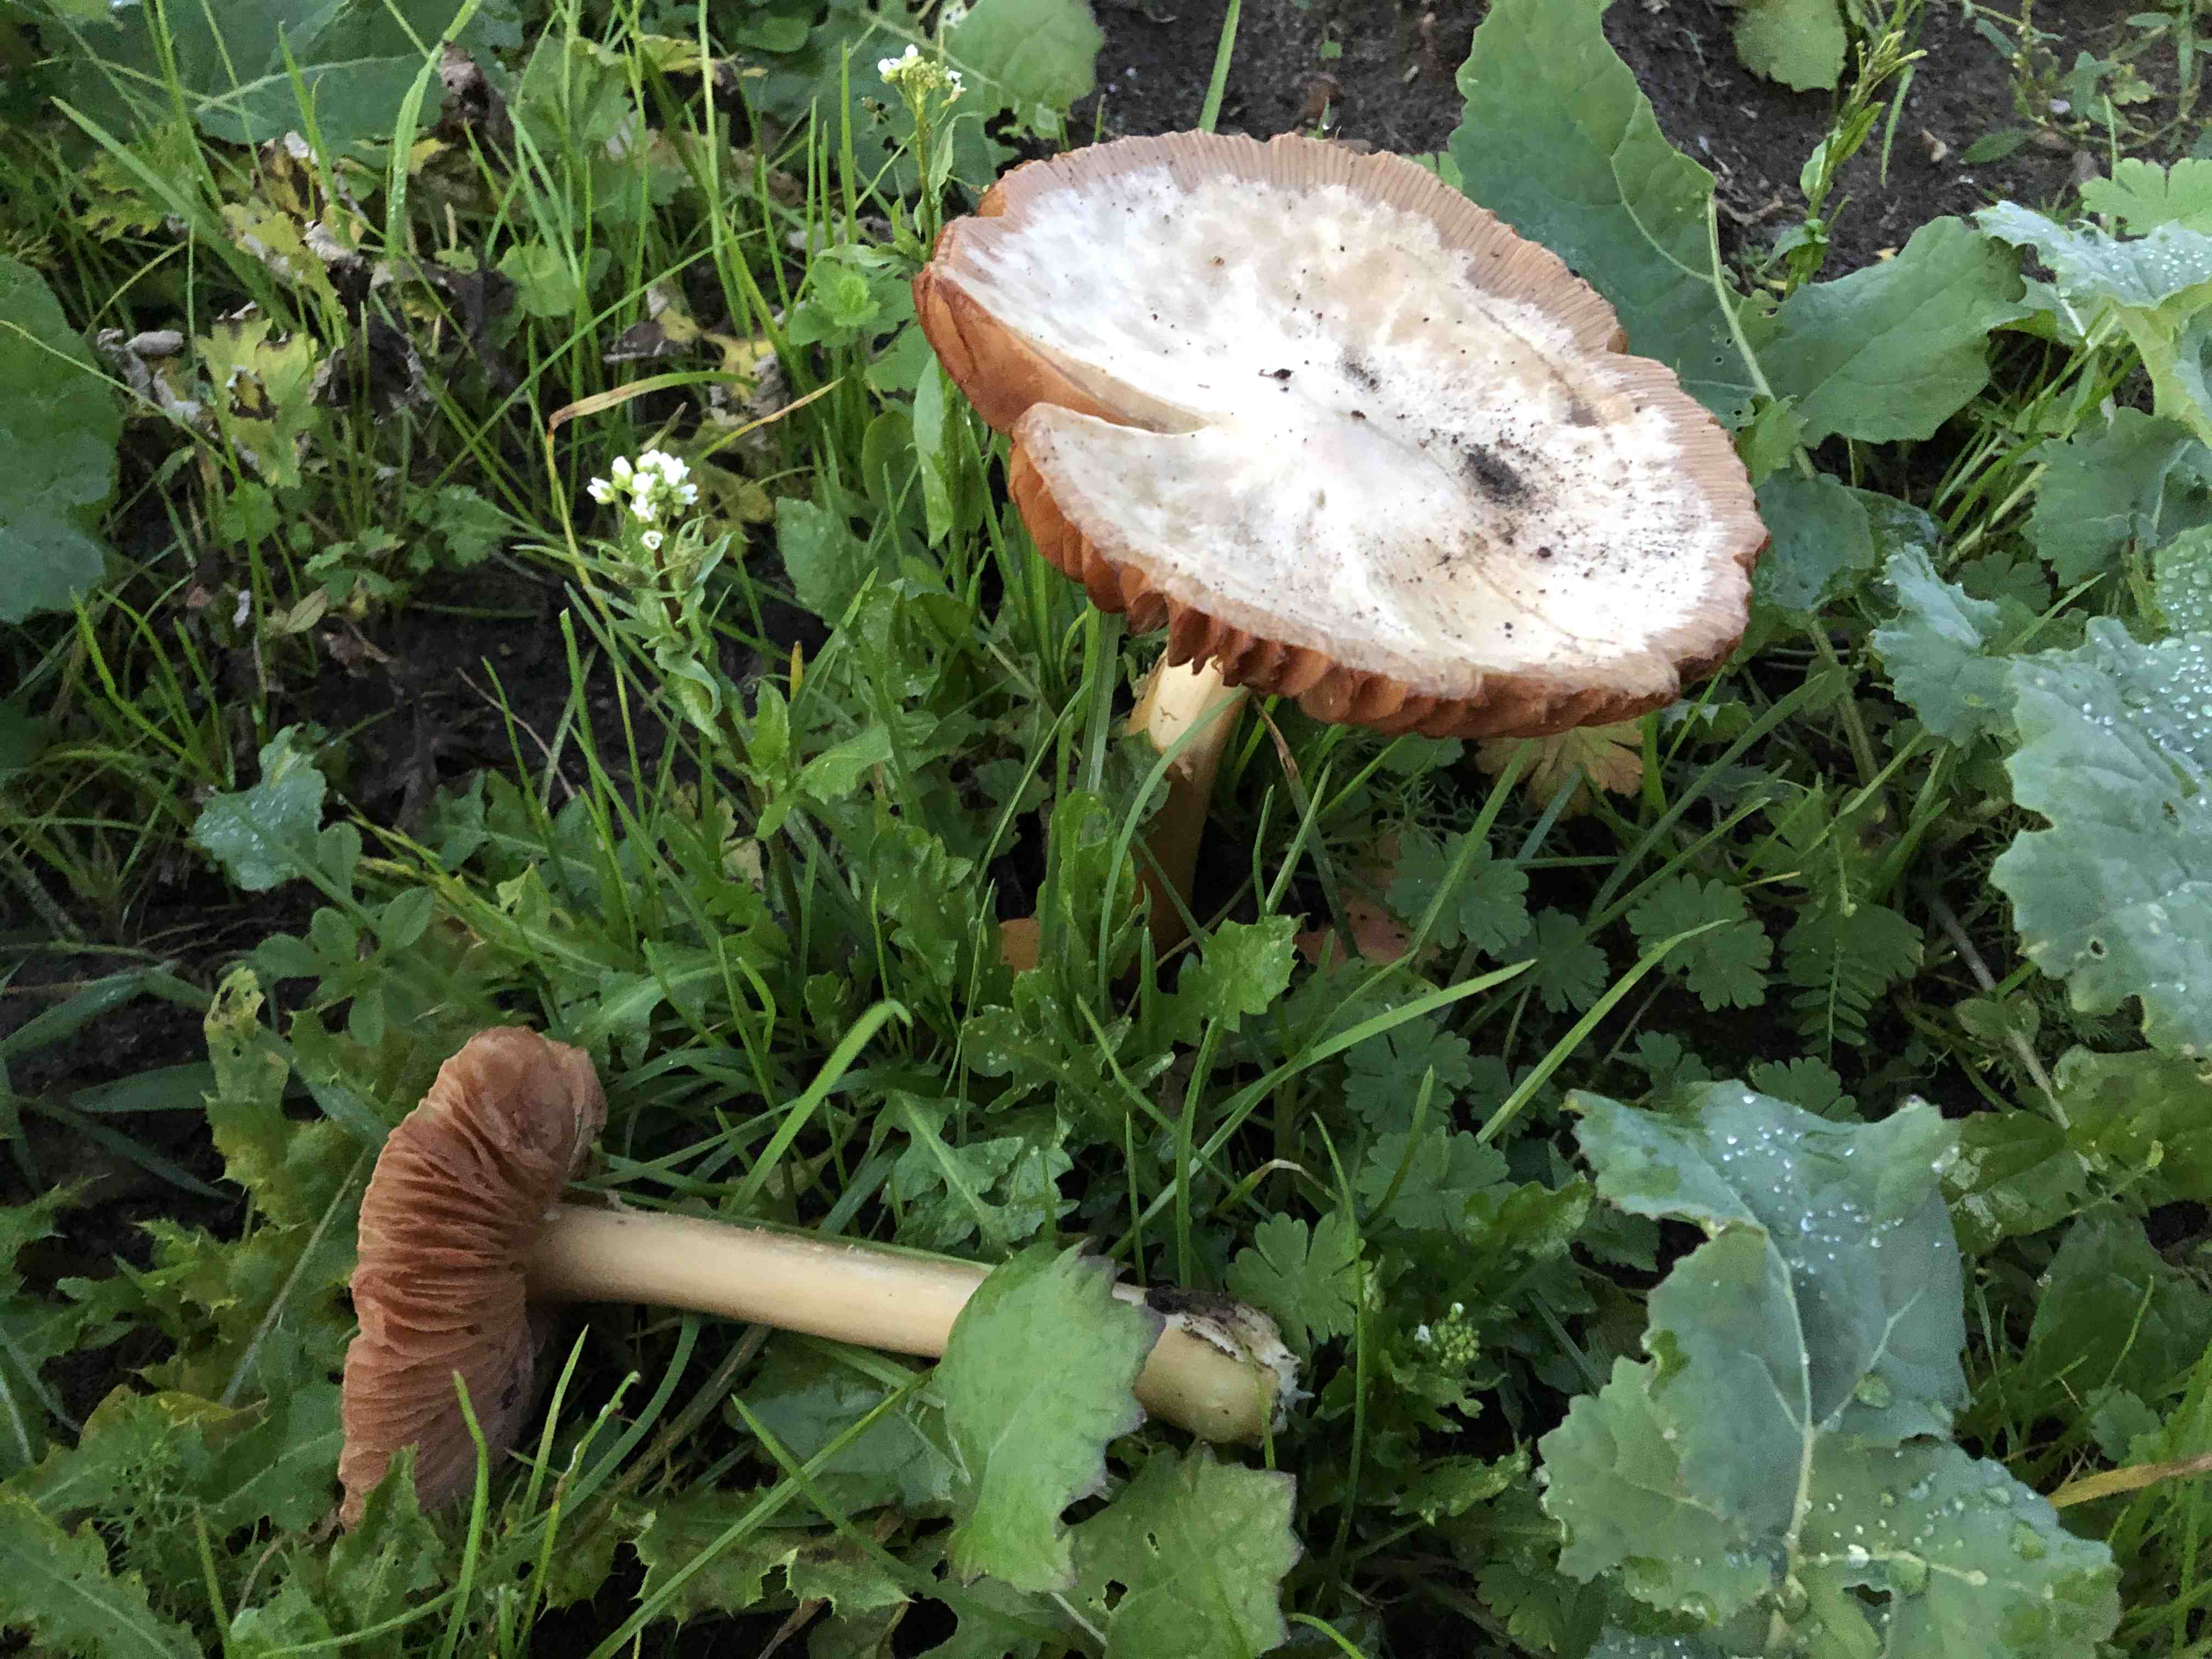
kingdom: Fungi
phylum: Basidiomycota
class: Agaricomycetes
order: Agaricales
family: Pluteaceae
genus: Volvopluteus
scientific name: Volvopluteus gloiocephalus
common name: høj posesvamp
